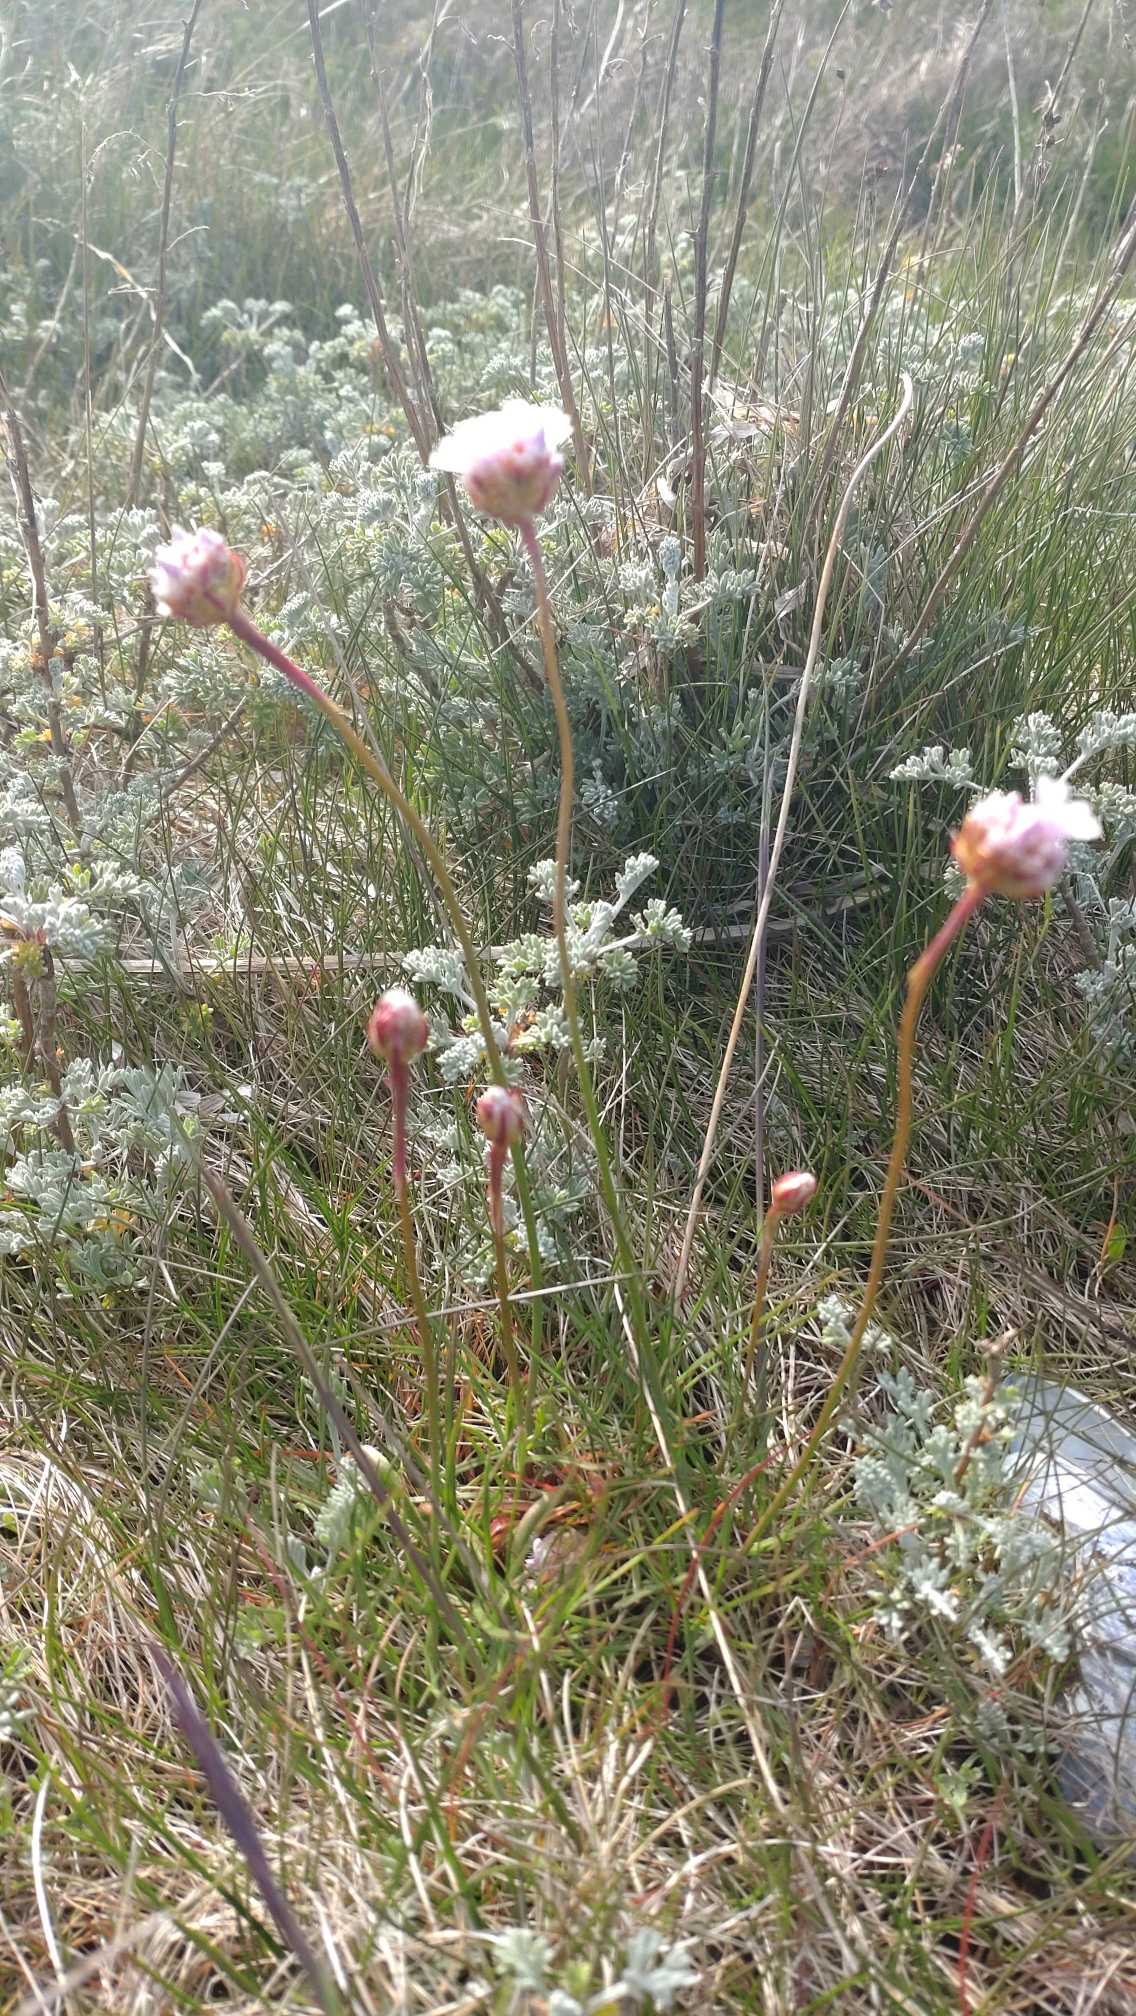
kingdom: Plantae
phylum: Tracheophyta
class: Magnoliopsida
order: Caryophyllales
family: Plumbaginaceae
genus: Armeria
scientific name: Armeria maritima
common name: Engelskgræs
